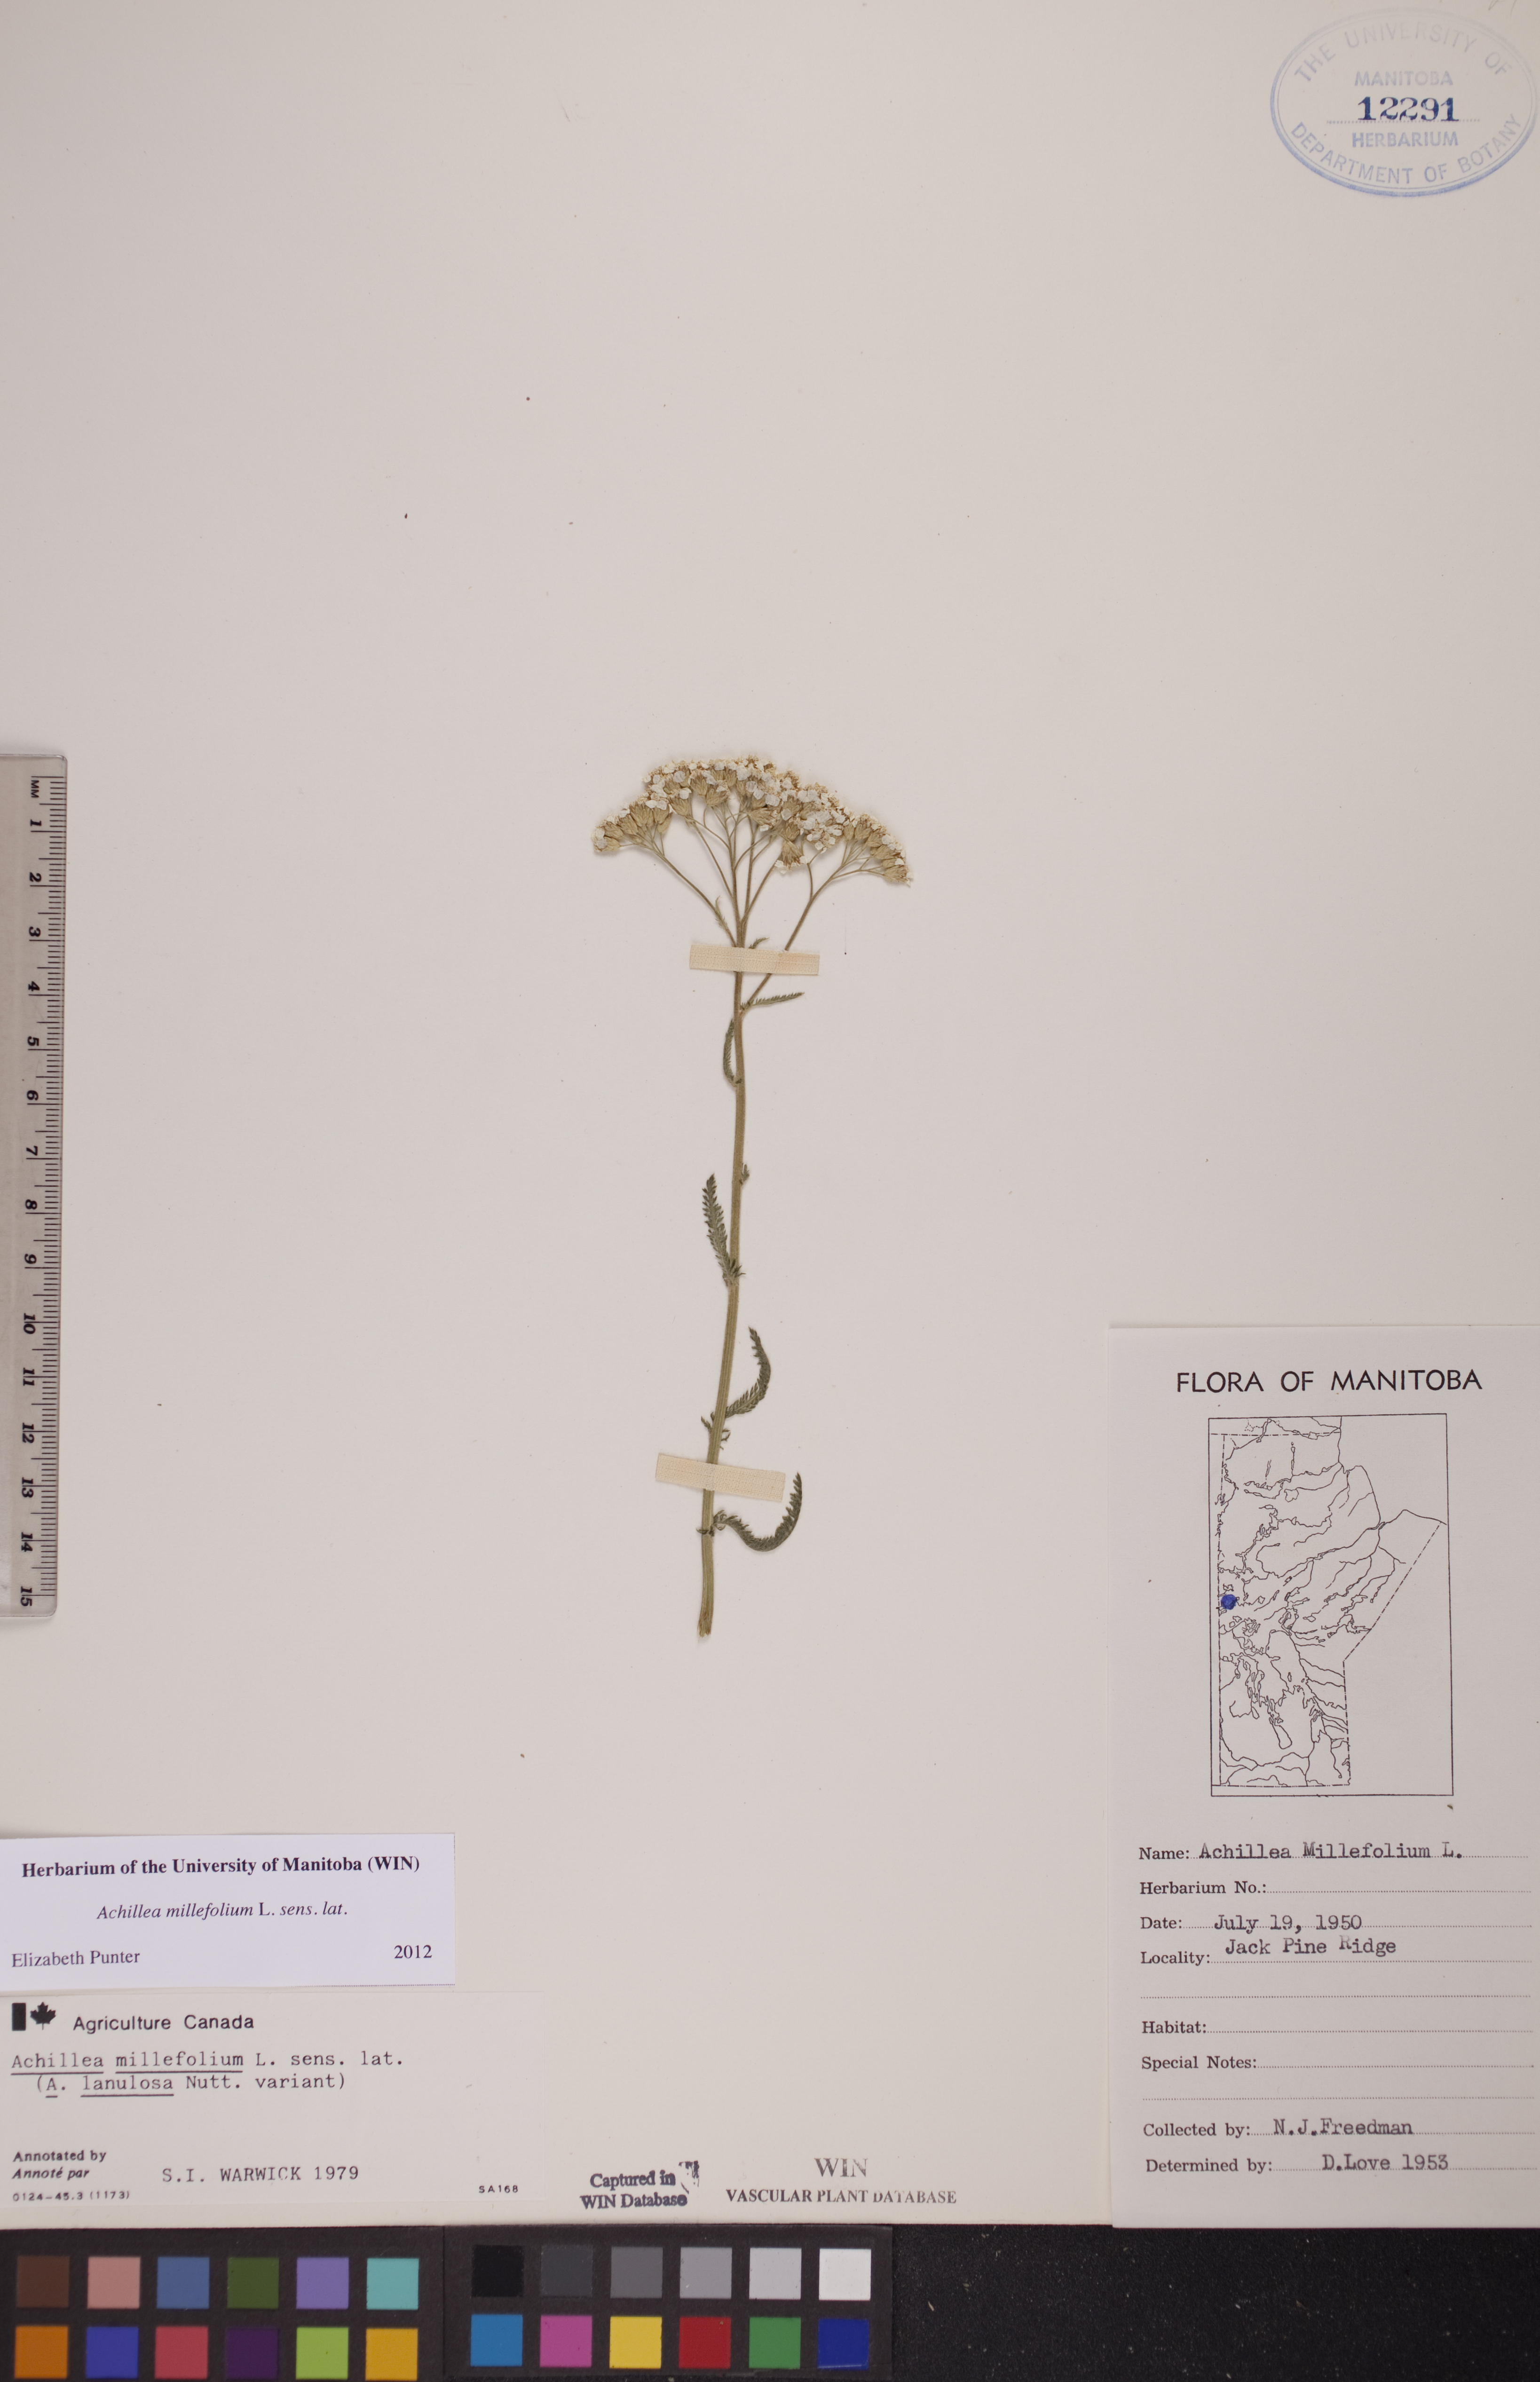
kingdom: Plantae
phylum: Tracheophyta
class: Magnoliopsida
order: Asterales
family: Asteraceae
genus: Achillea
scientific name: Achillea millefolium
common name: Yarrow
